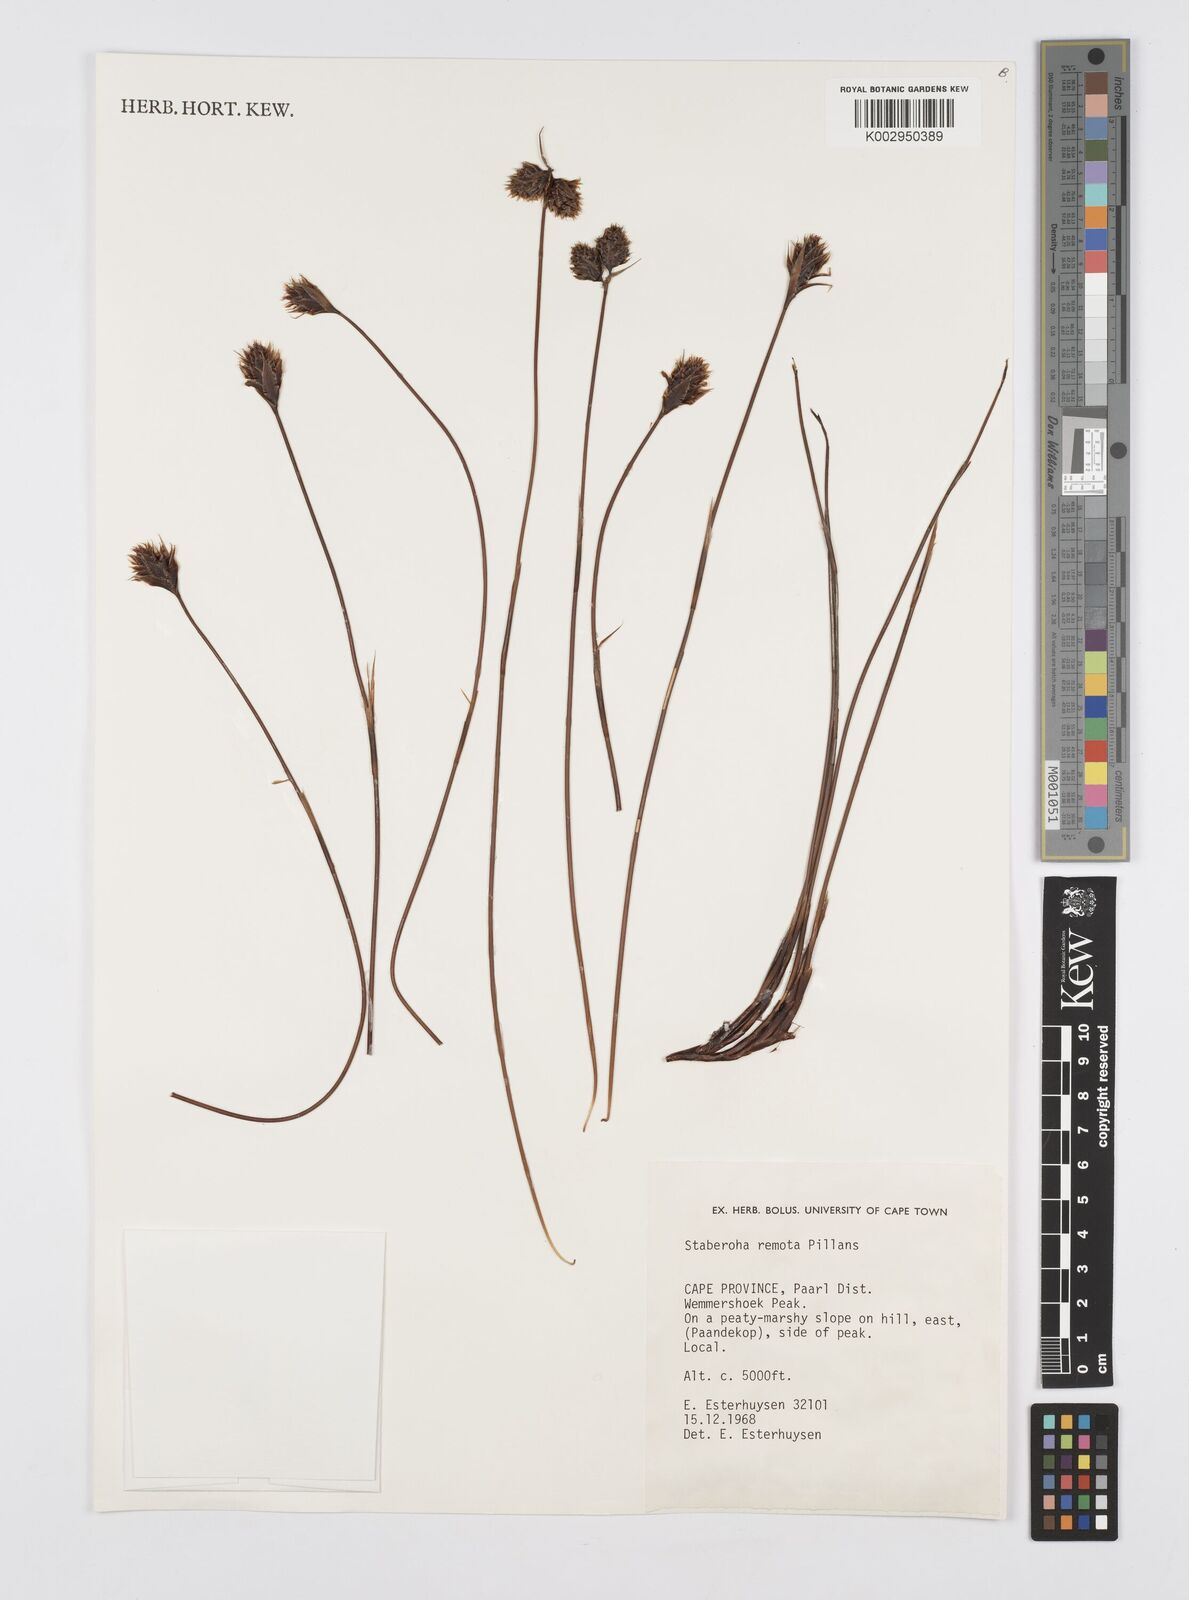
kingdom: Plantae
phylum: Tracheophyta
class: Liliopsida
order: Poales
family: Restionaceae
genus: Staberoha
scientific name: Staberoha remota
